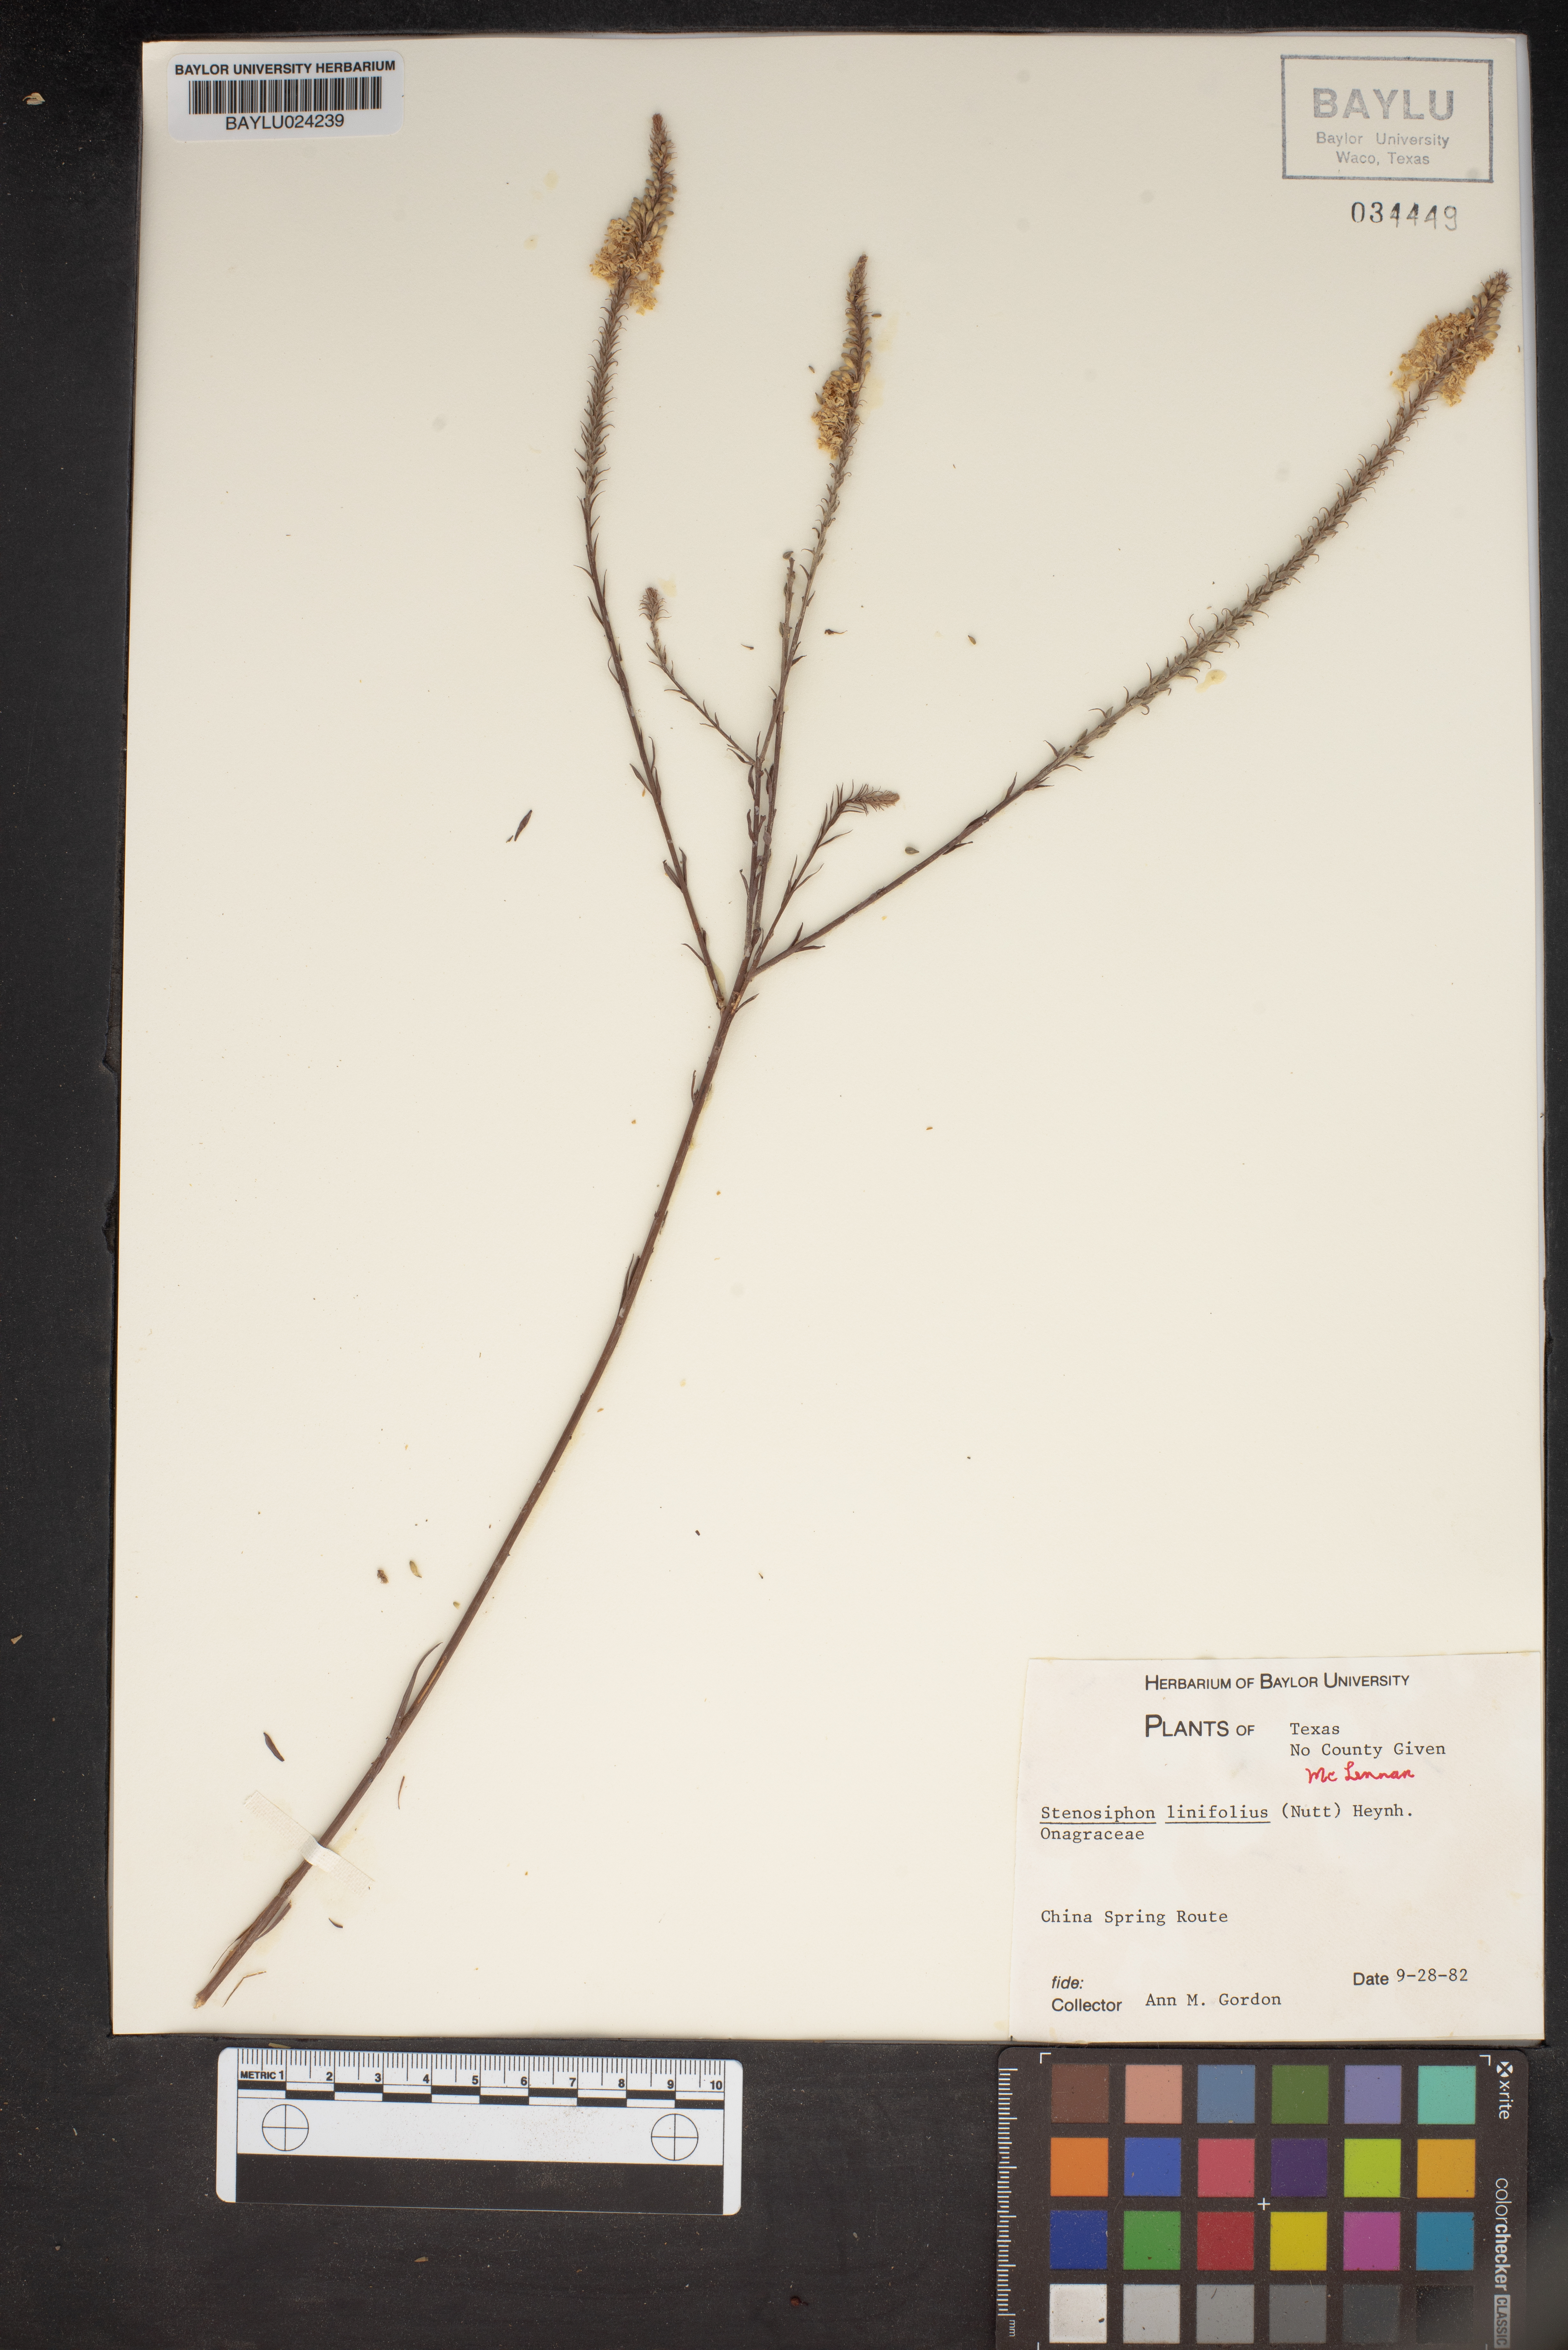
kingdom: Plantae
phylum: Tracheophyta
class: Magnoliopsida
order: Myrtales
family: Onagraceae
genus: Oenothera
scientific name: Oenothera glaucifolia
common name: False gaura
